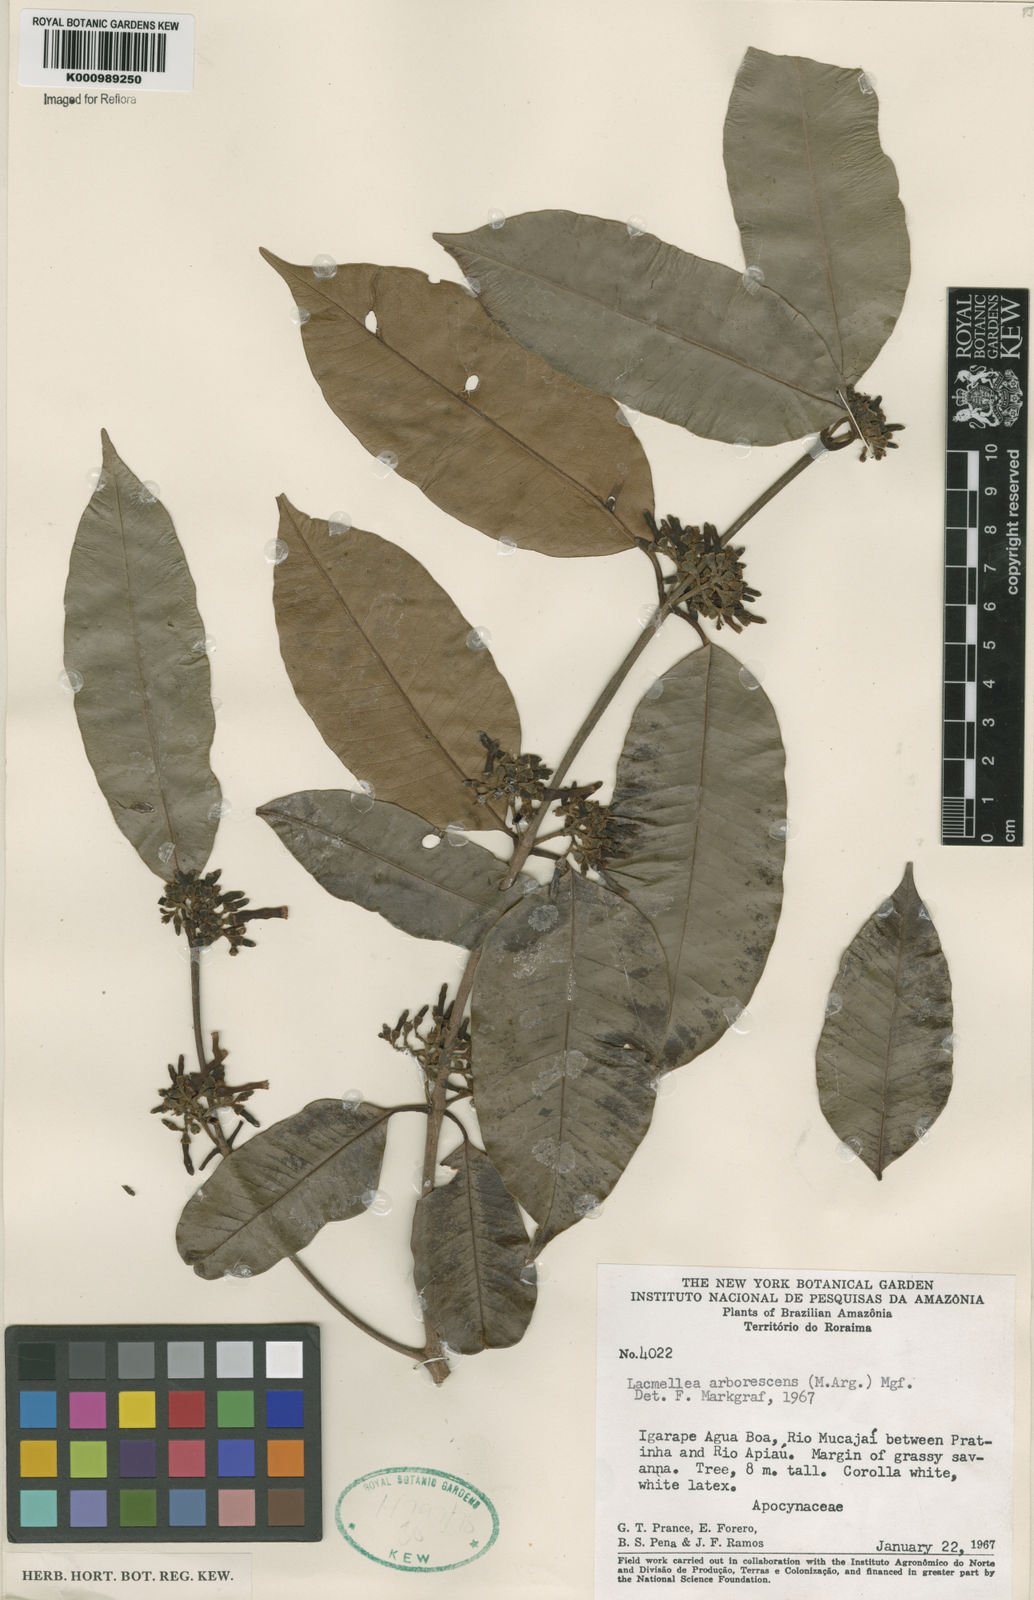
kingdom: Plantae
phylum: Tracheophyta
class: Magnoliopsida
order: Gentianales
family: Apocynaceae
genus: Lacmellea
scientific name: Lacmellea
